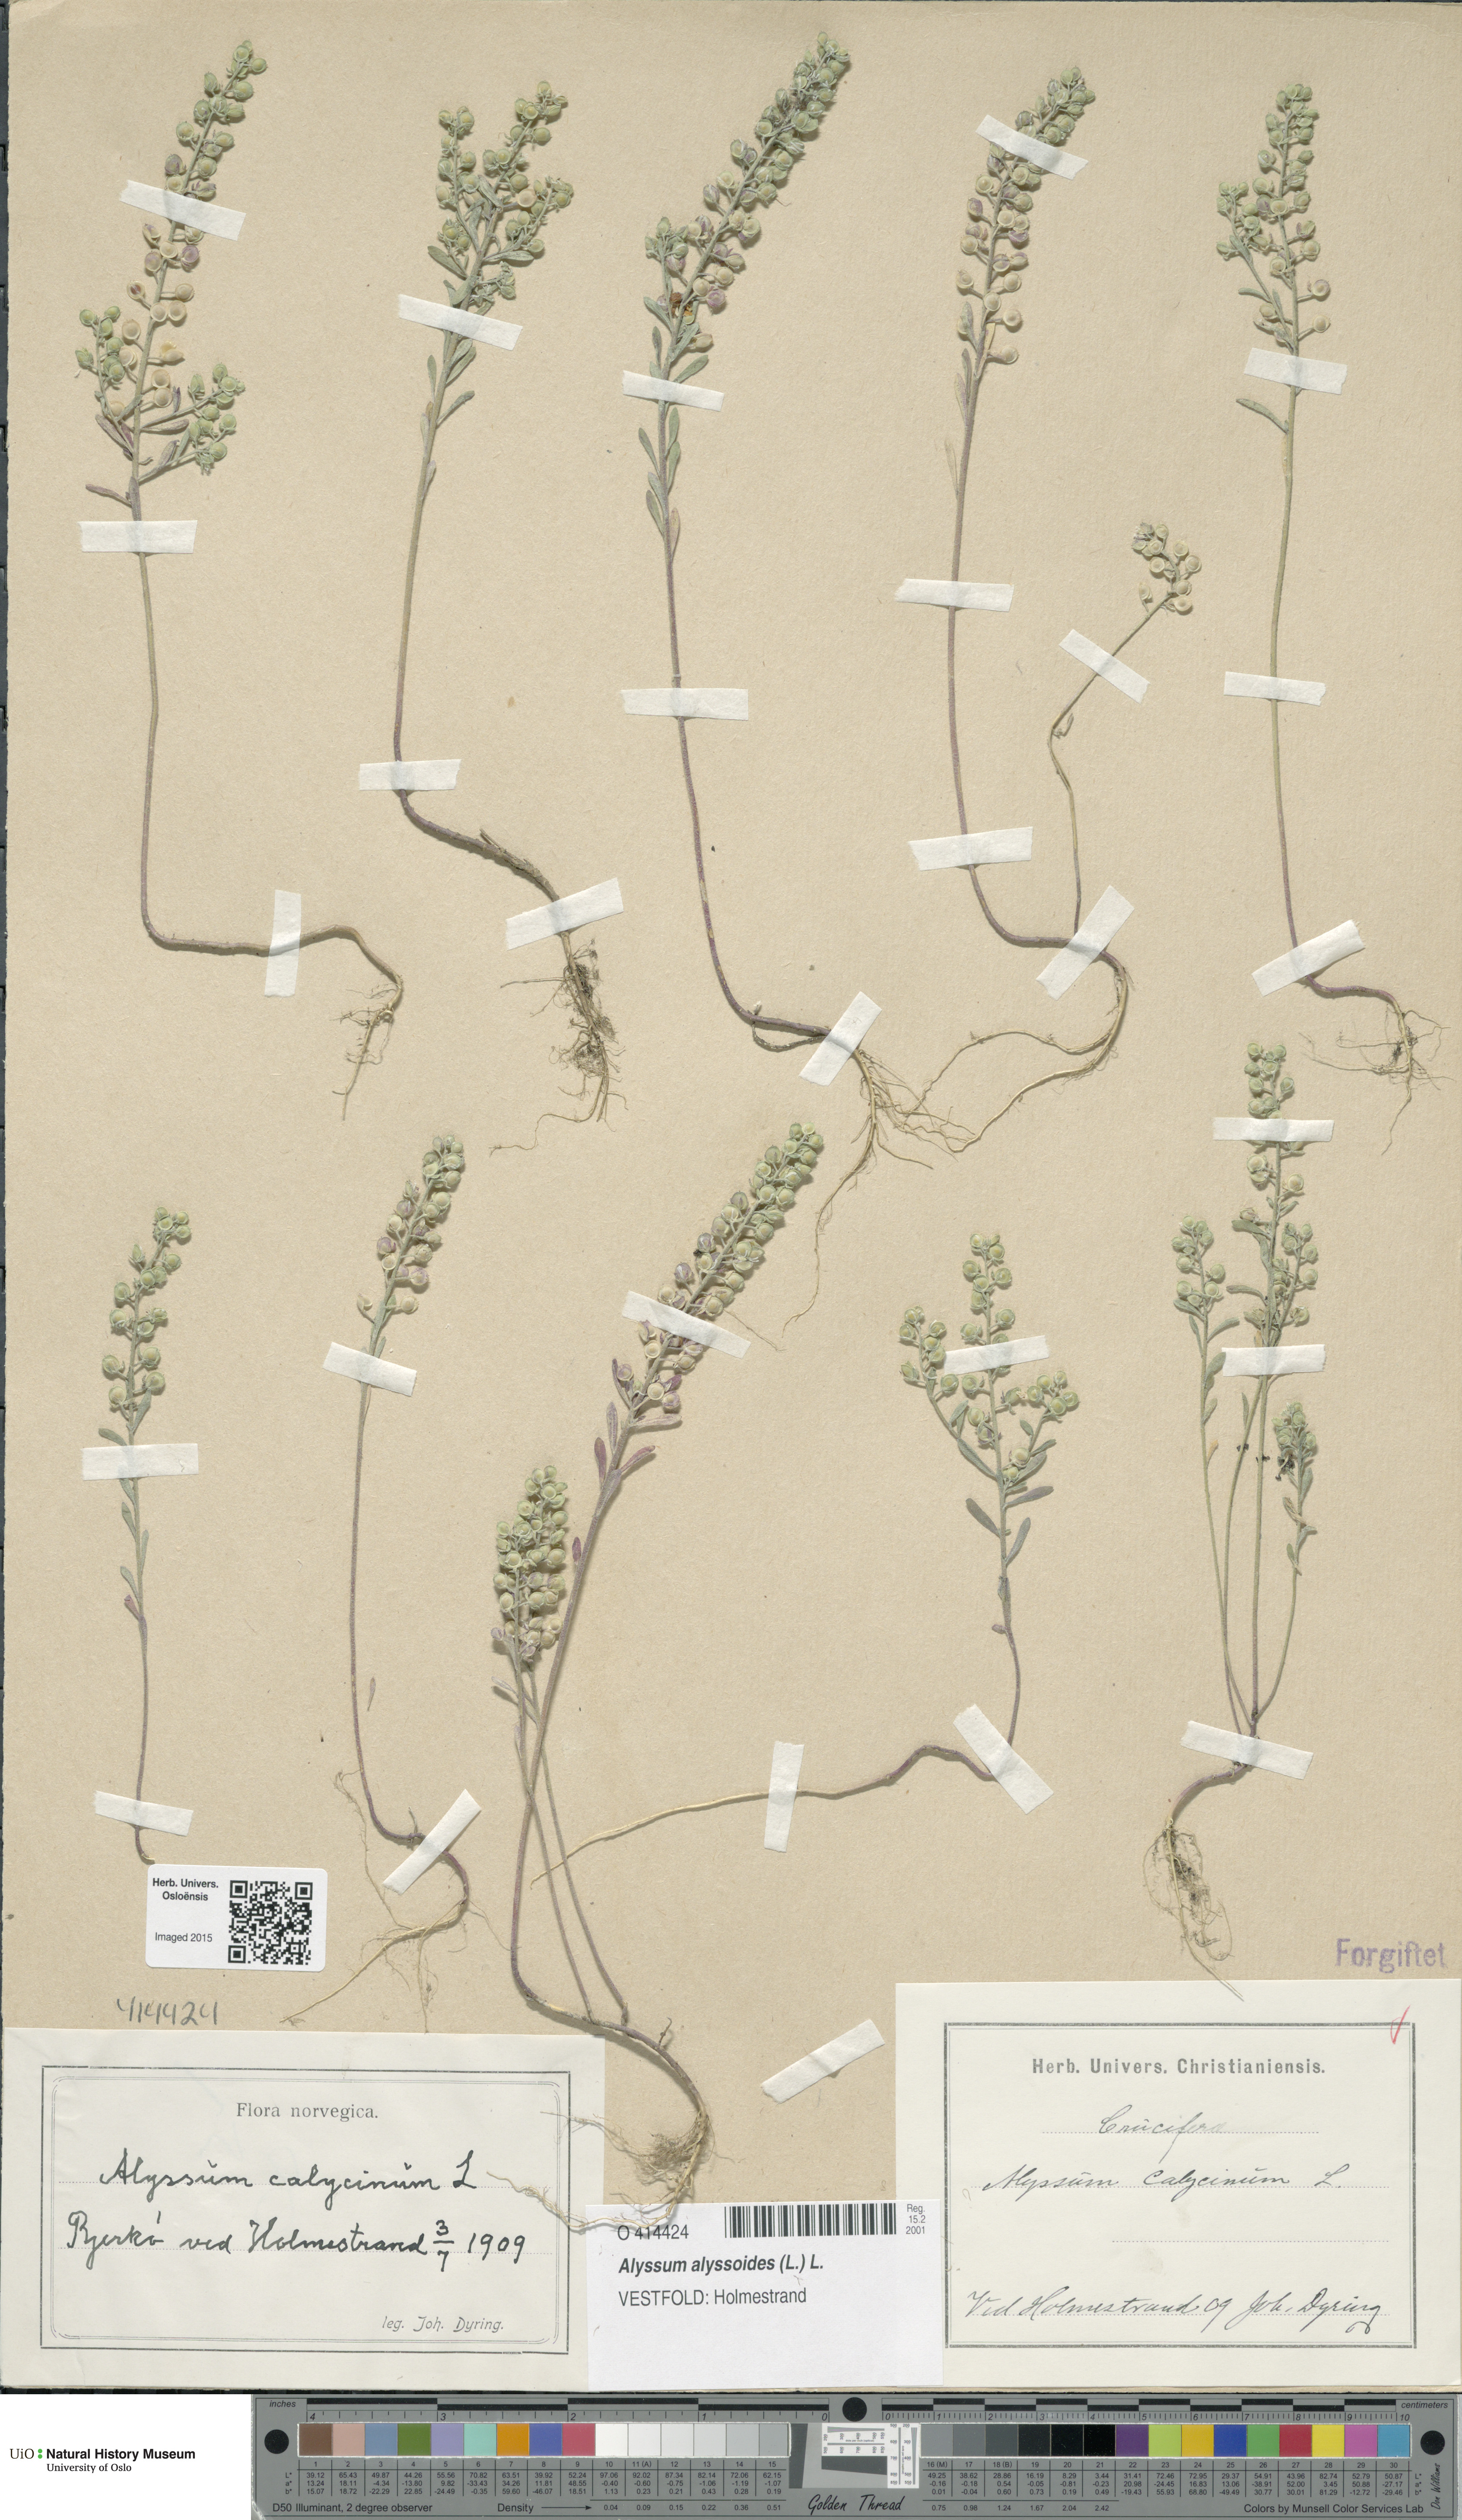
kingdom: Plantae
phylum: Tracheophyta
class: Magnoliopsida
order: Brassicales
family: Brassicaceae
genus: Alyssum
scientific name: Alyssum alyssoides
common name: Small alison
